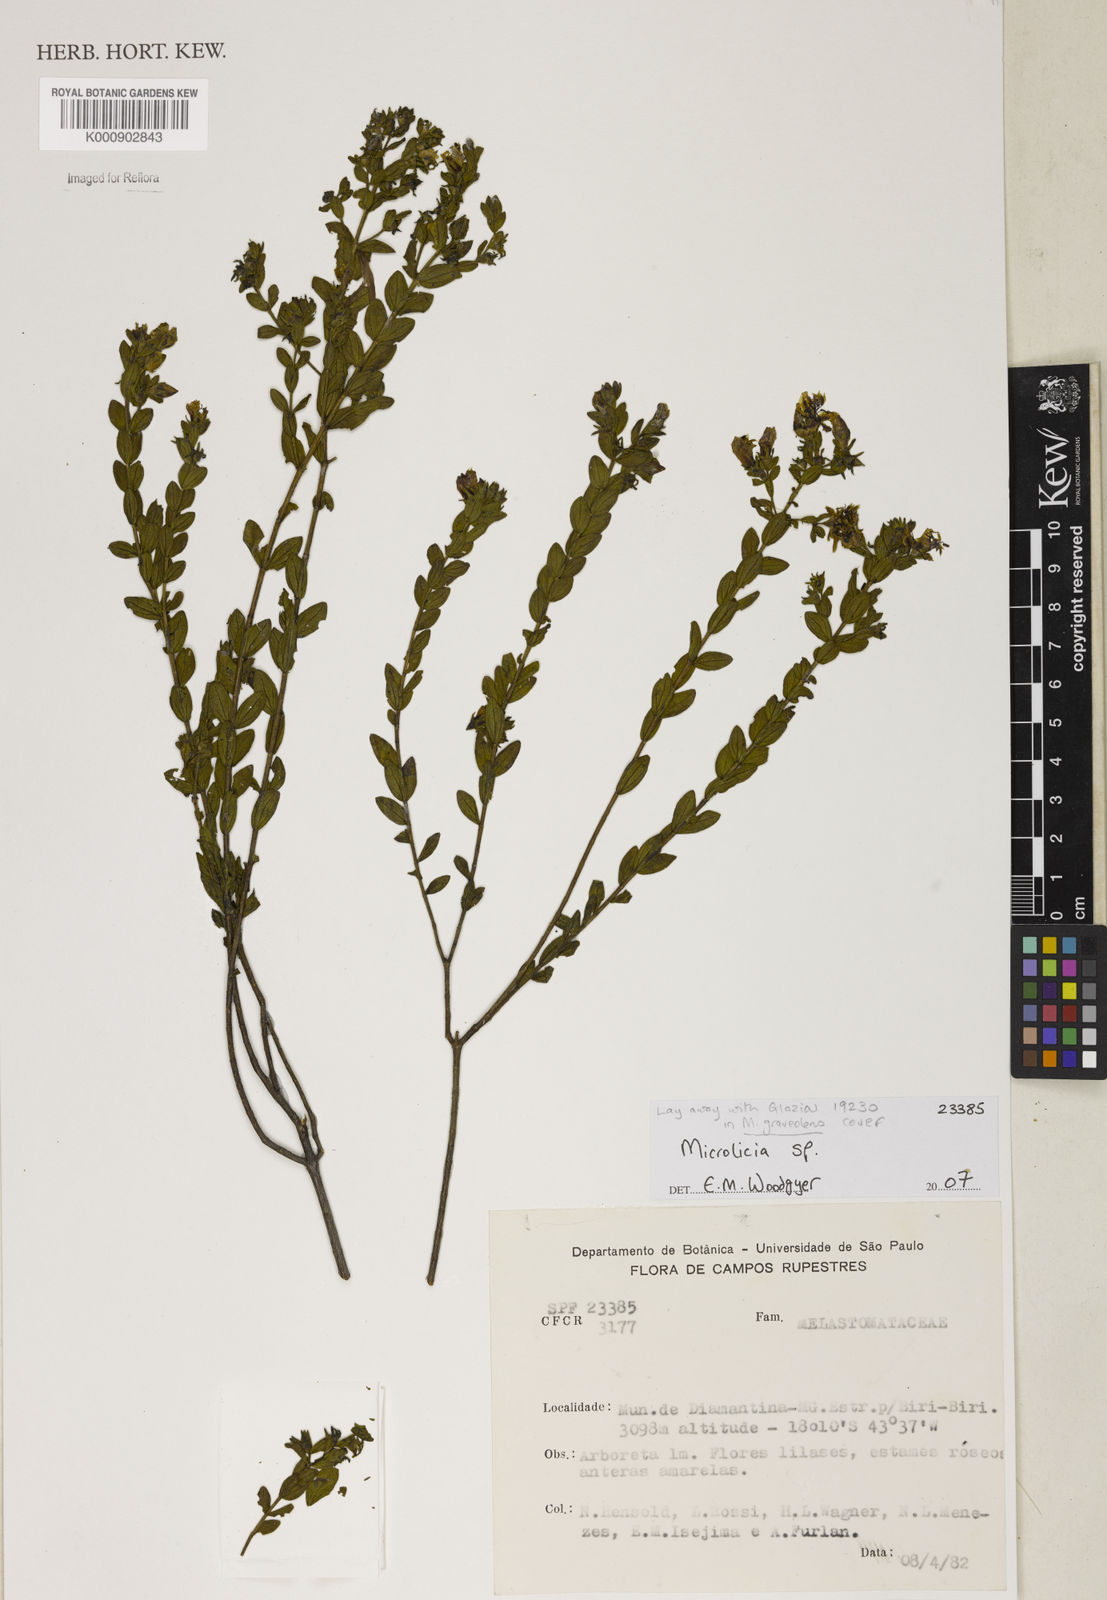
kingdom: Plantae
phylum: Tracheophyta
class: Magnoliopsida
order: Malpighiales
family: Podostemaceae
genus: Diamantina
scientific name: Diamantina
